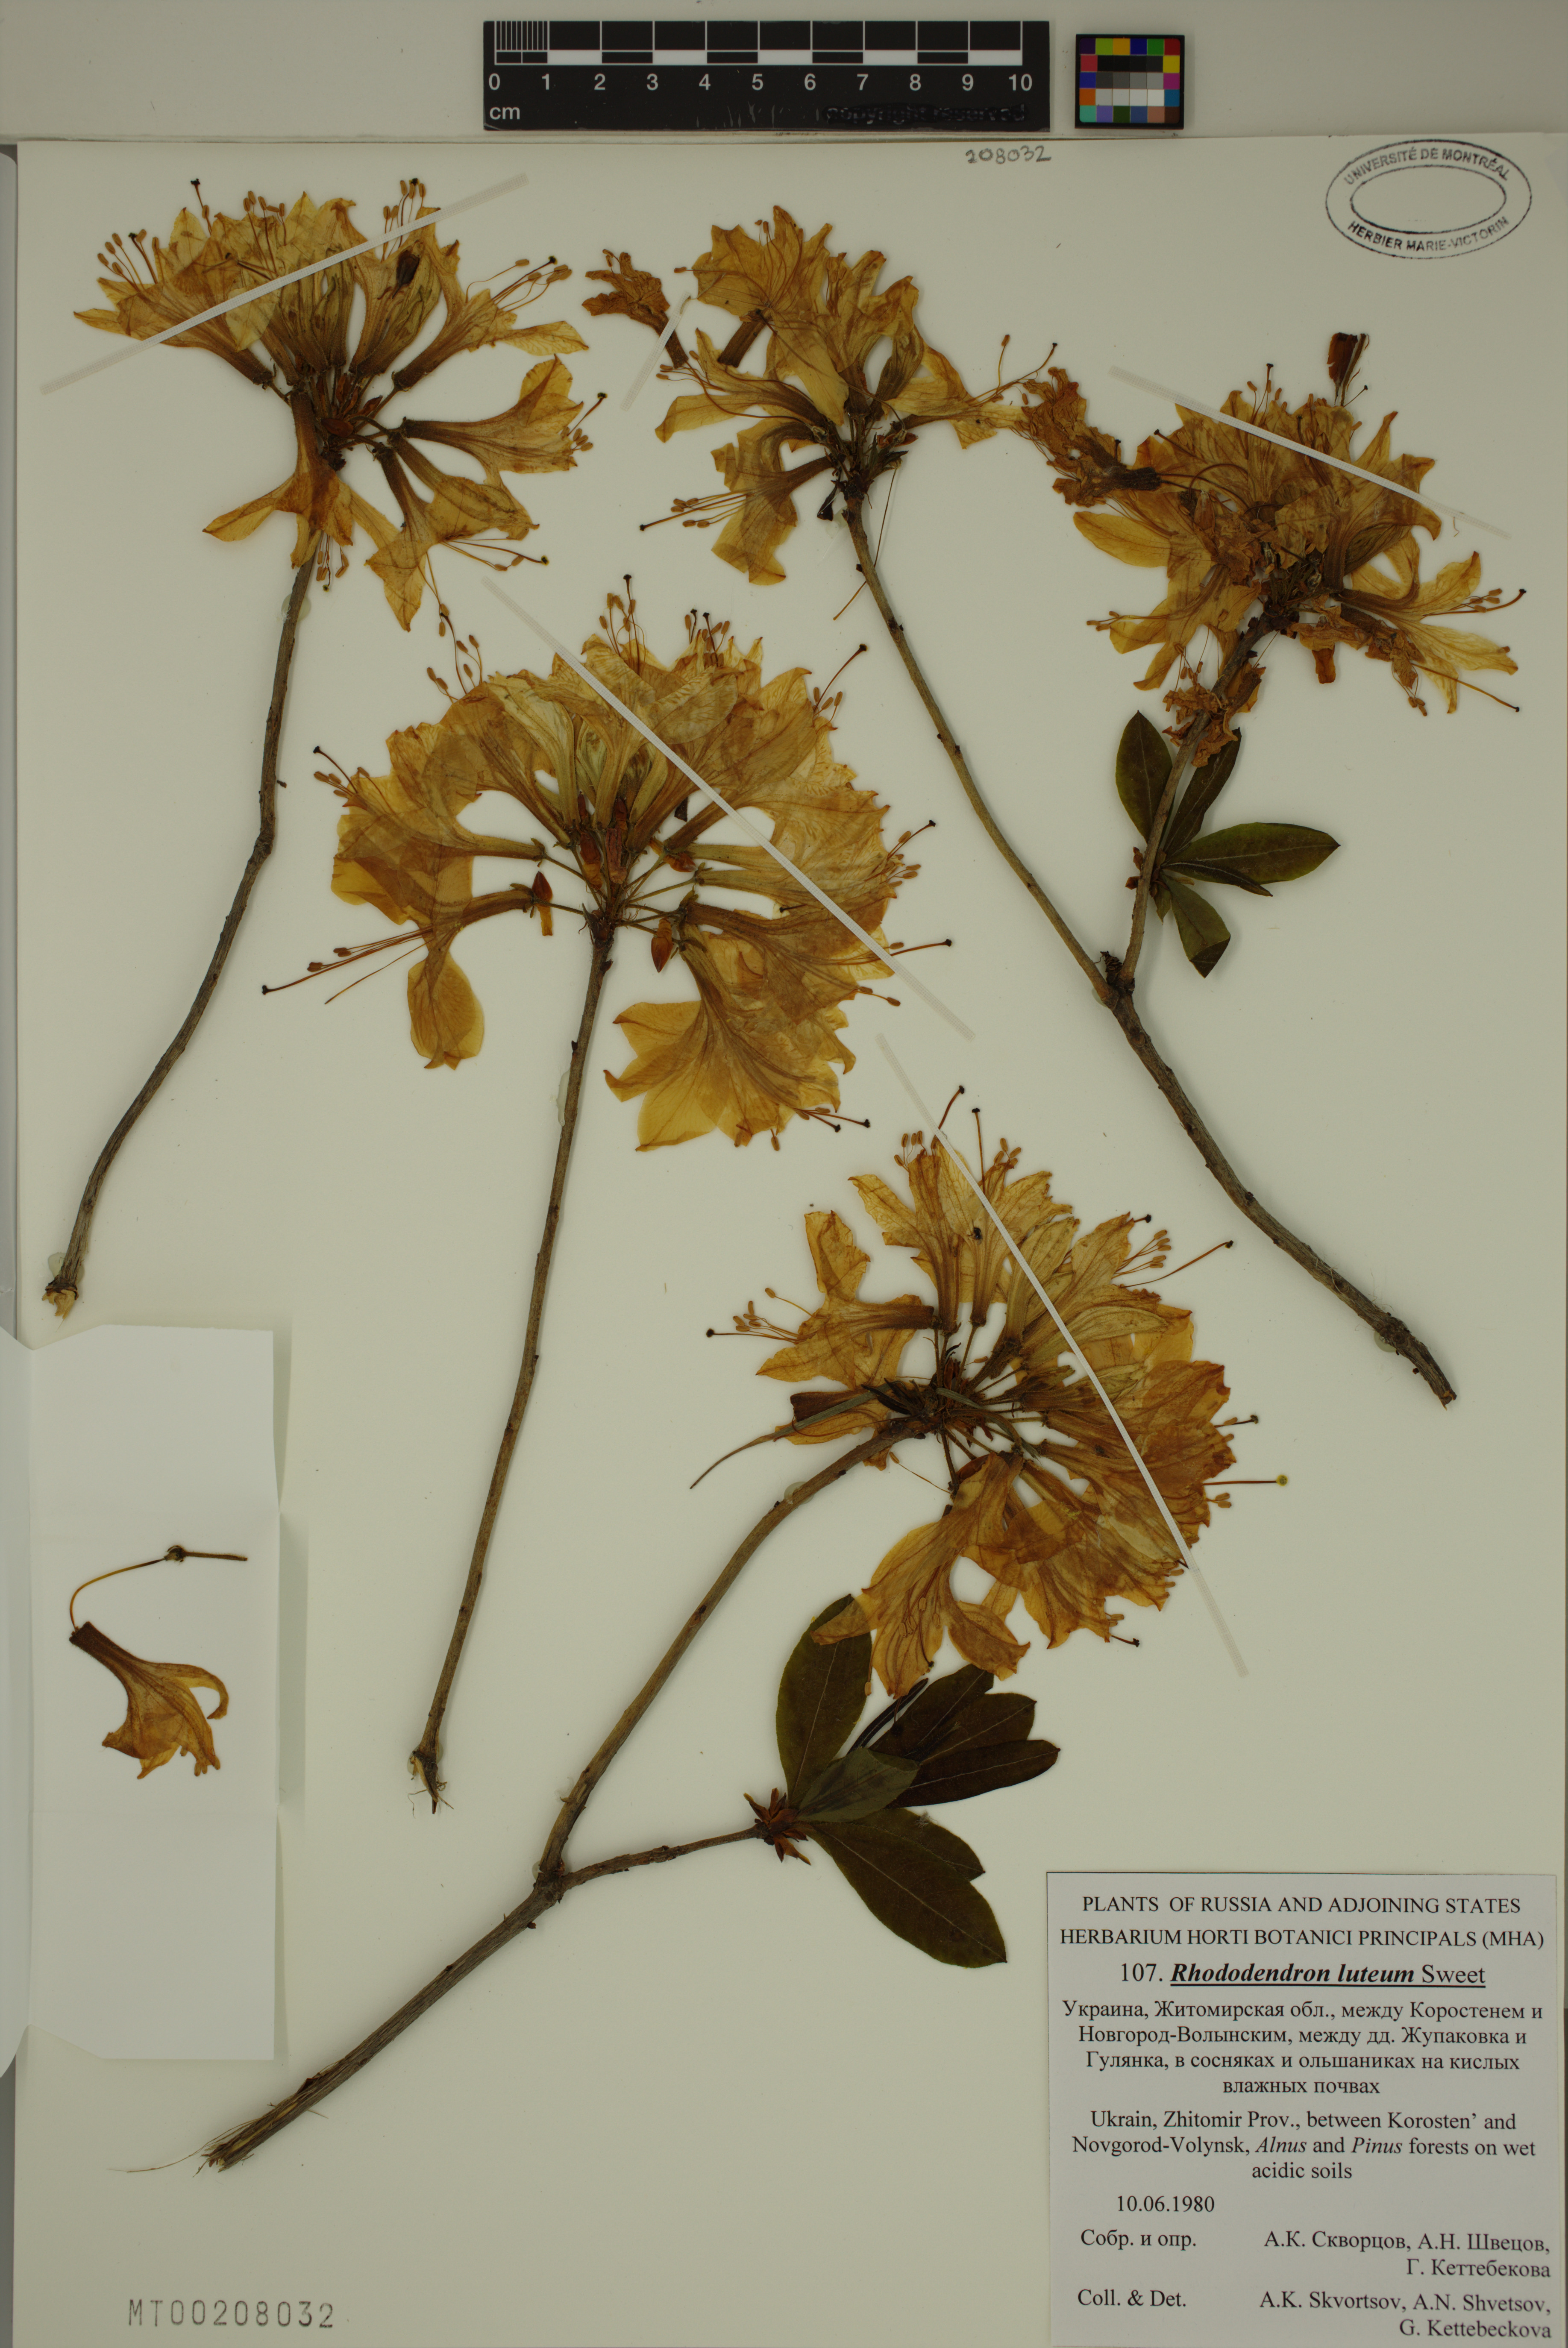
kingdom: Plantae
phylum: Tracheophyta
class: Magnoliopsida
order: Ericales
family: Ericaceae
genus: Rhododendron
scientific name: Rhododendron luteum
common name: Yellow azalea
